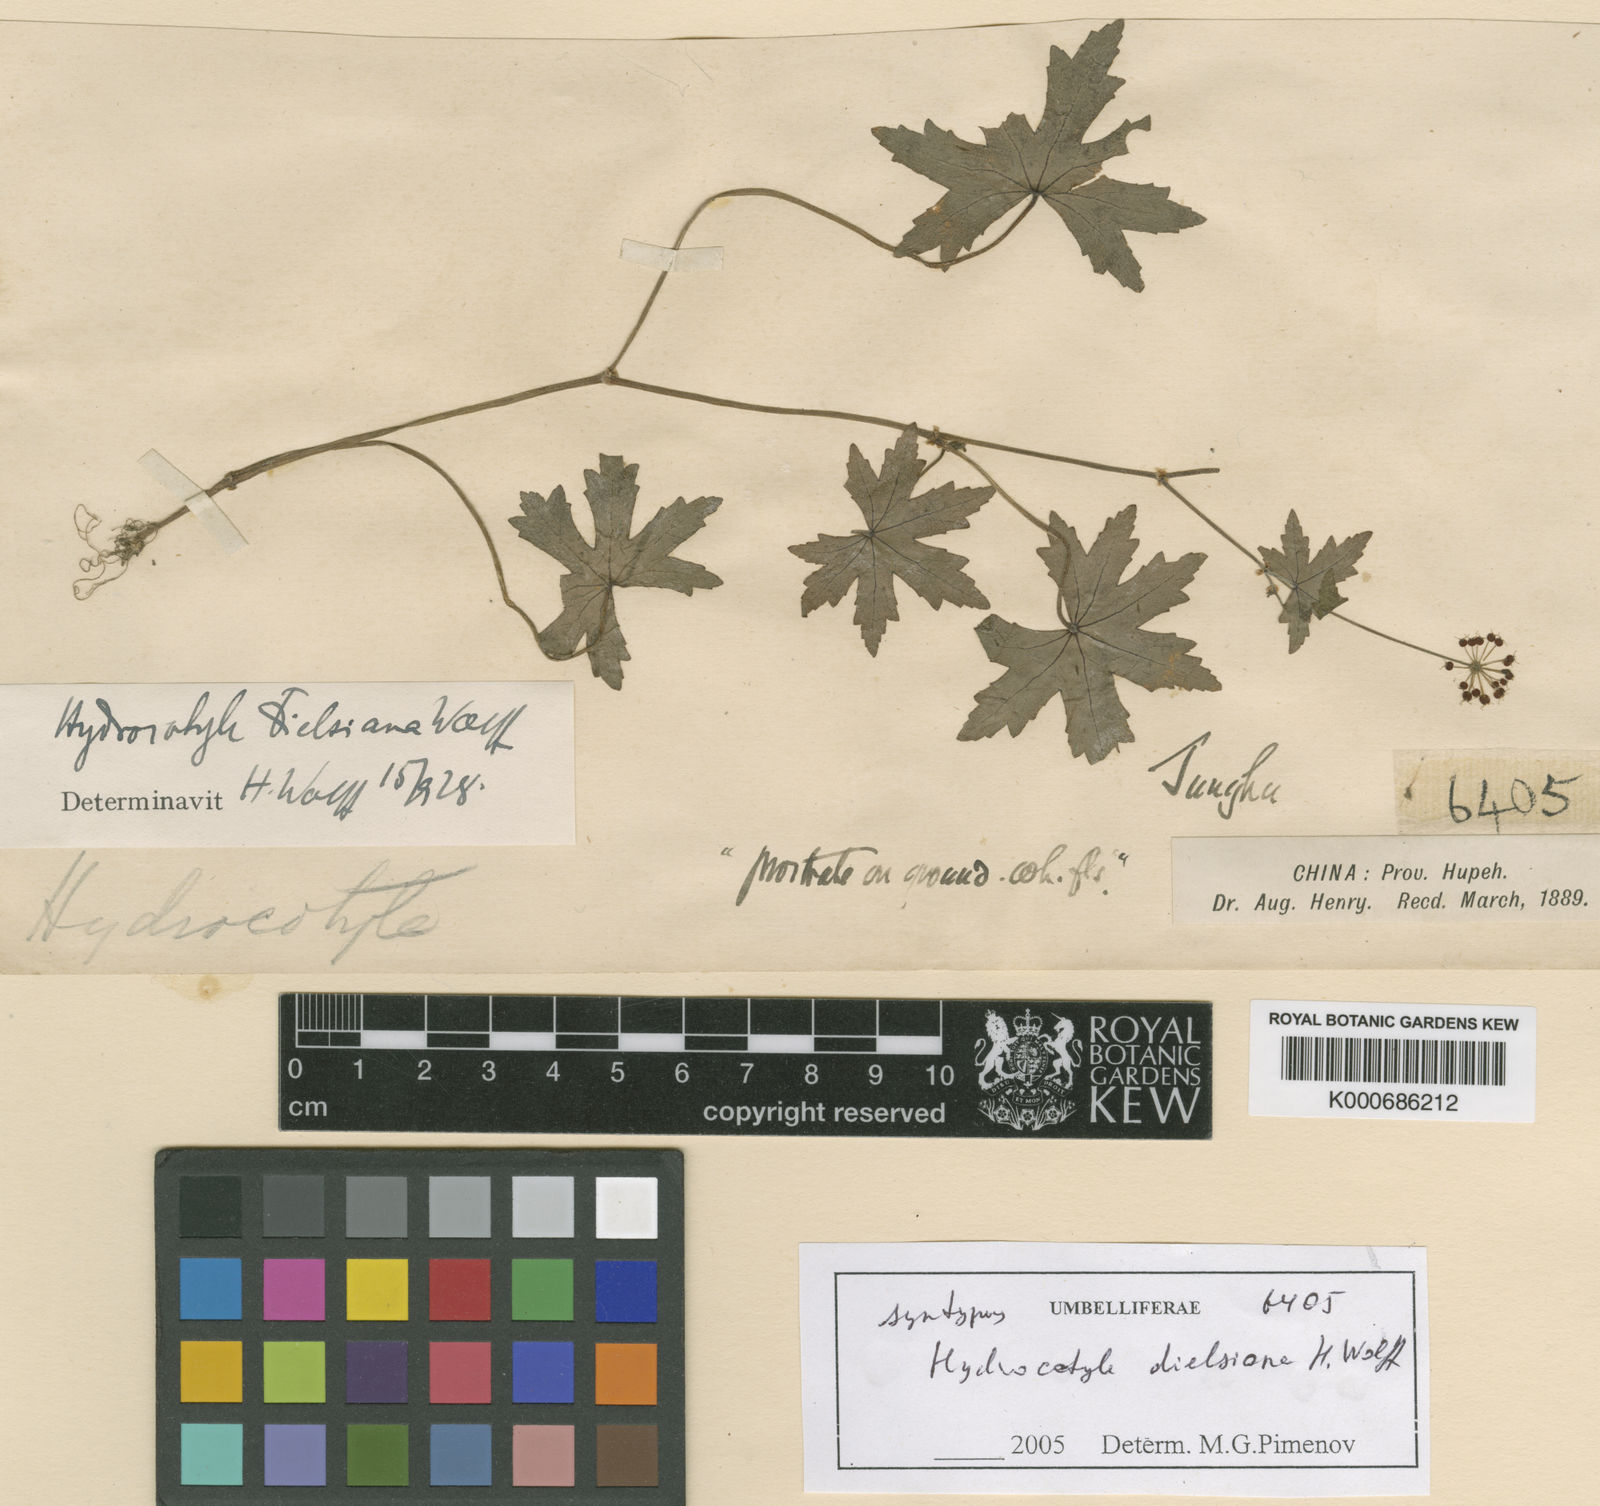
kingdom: Plantae
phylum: Tracheophyta
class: Magnoliopsida
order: Apiales
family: Araliaceae
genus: Hydrocotyle
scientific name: Hydrocotyle dielsiana
